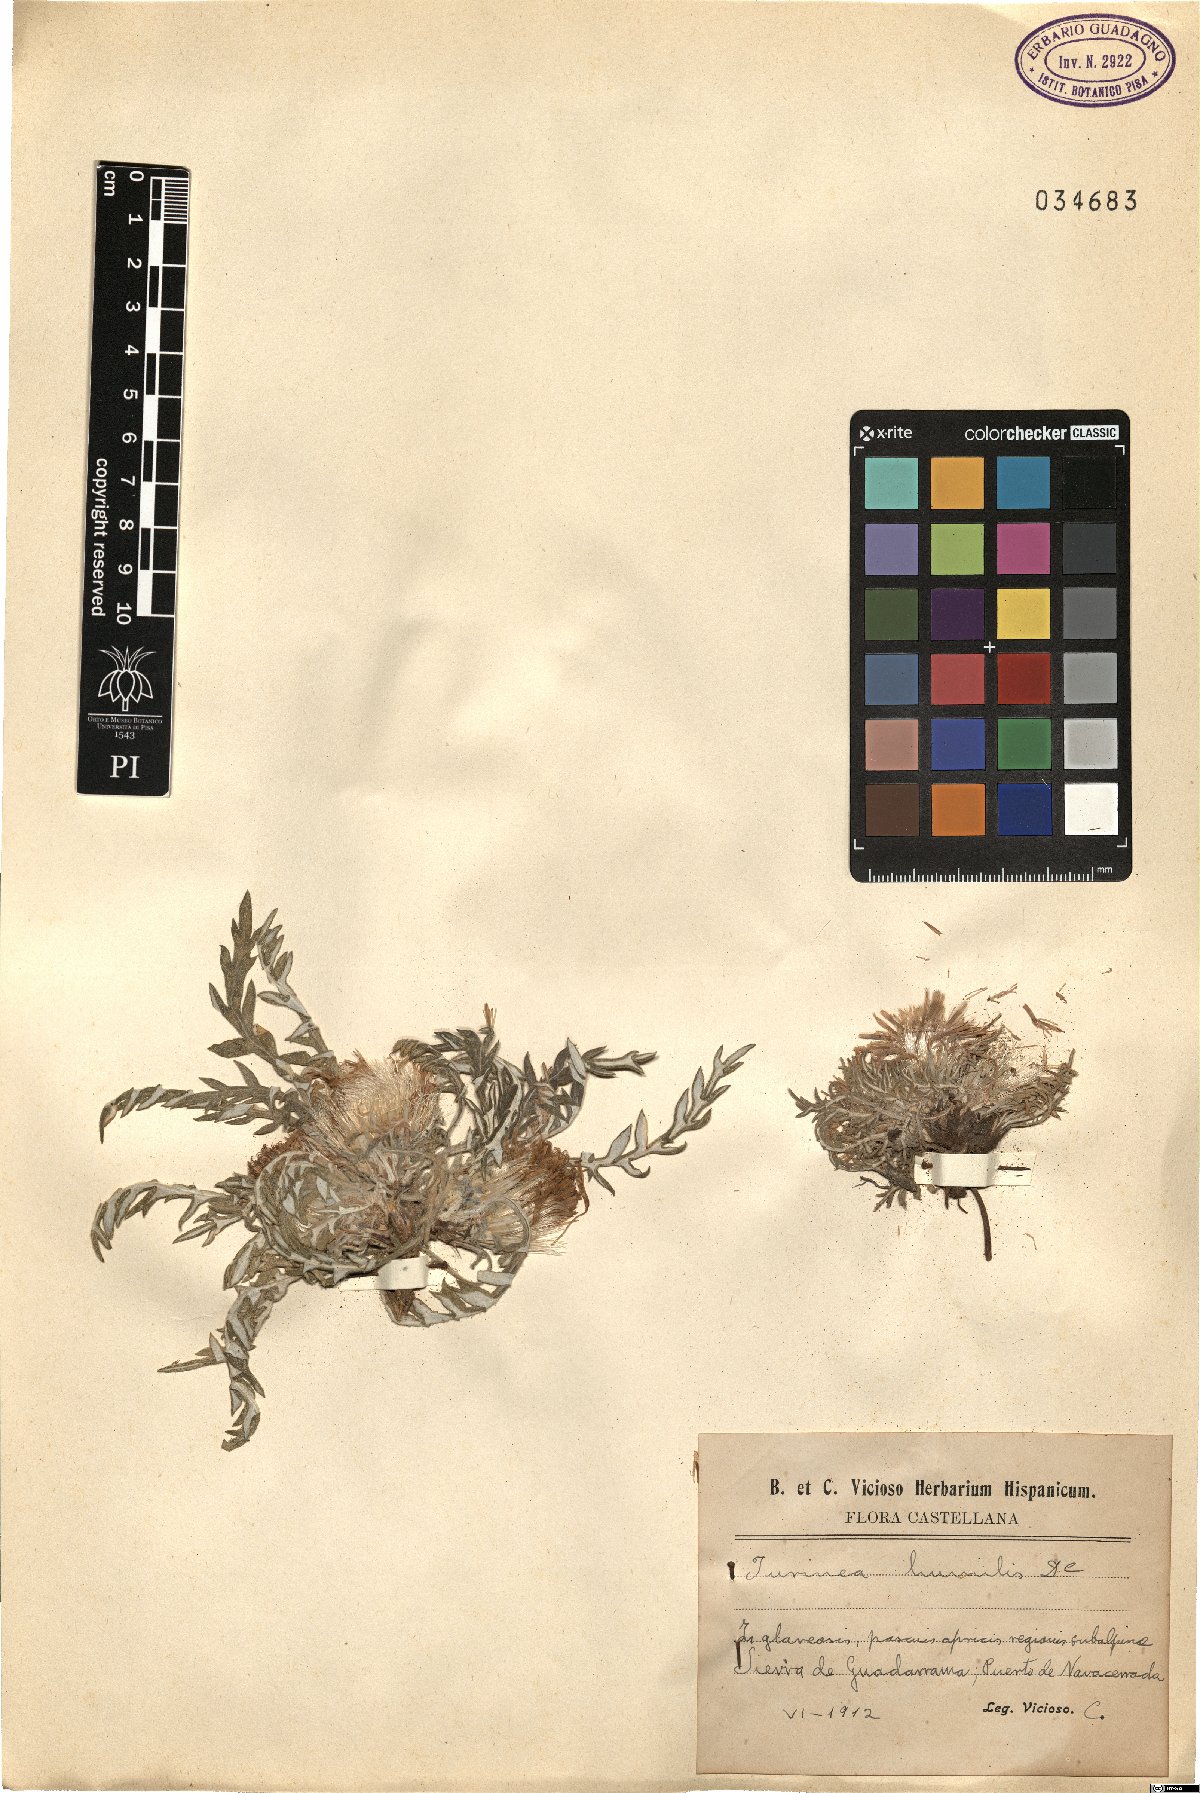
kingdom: Plantae
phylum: Tracheophyta
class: Magnoliopsida
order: Asterales
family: Asteraceae
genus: Jurinea
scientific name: Jurinea humilis
